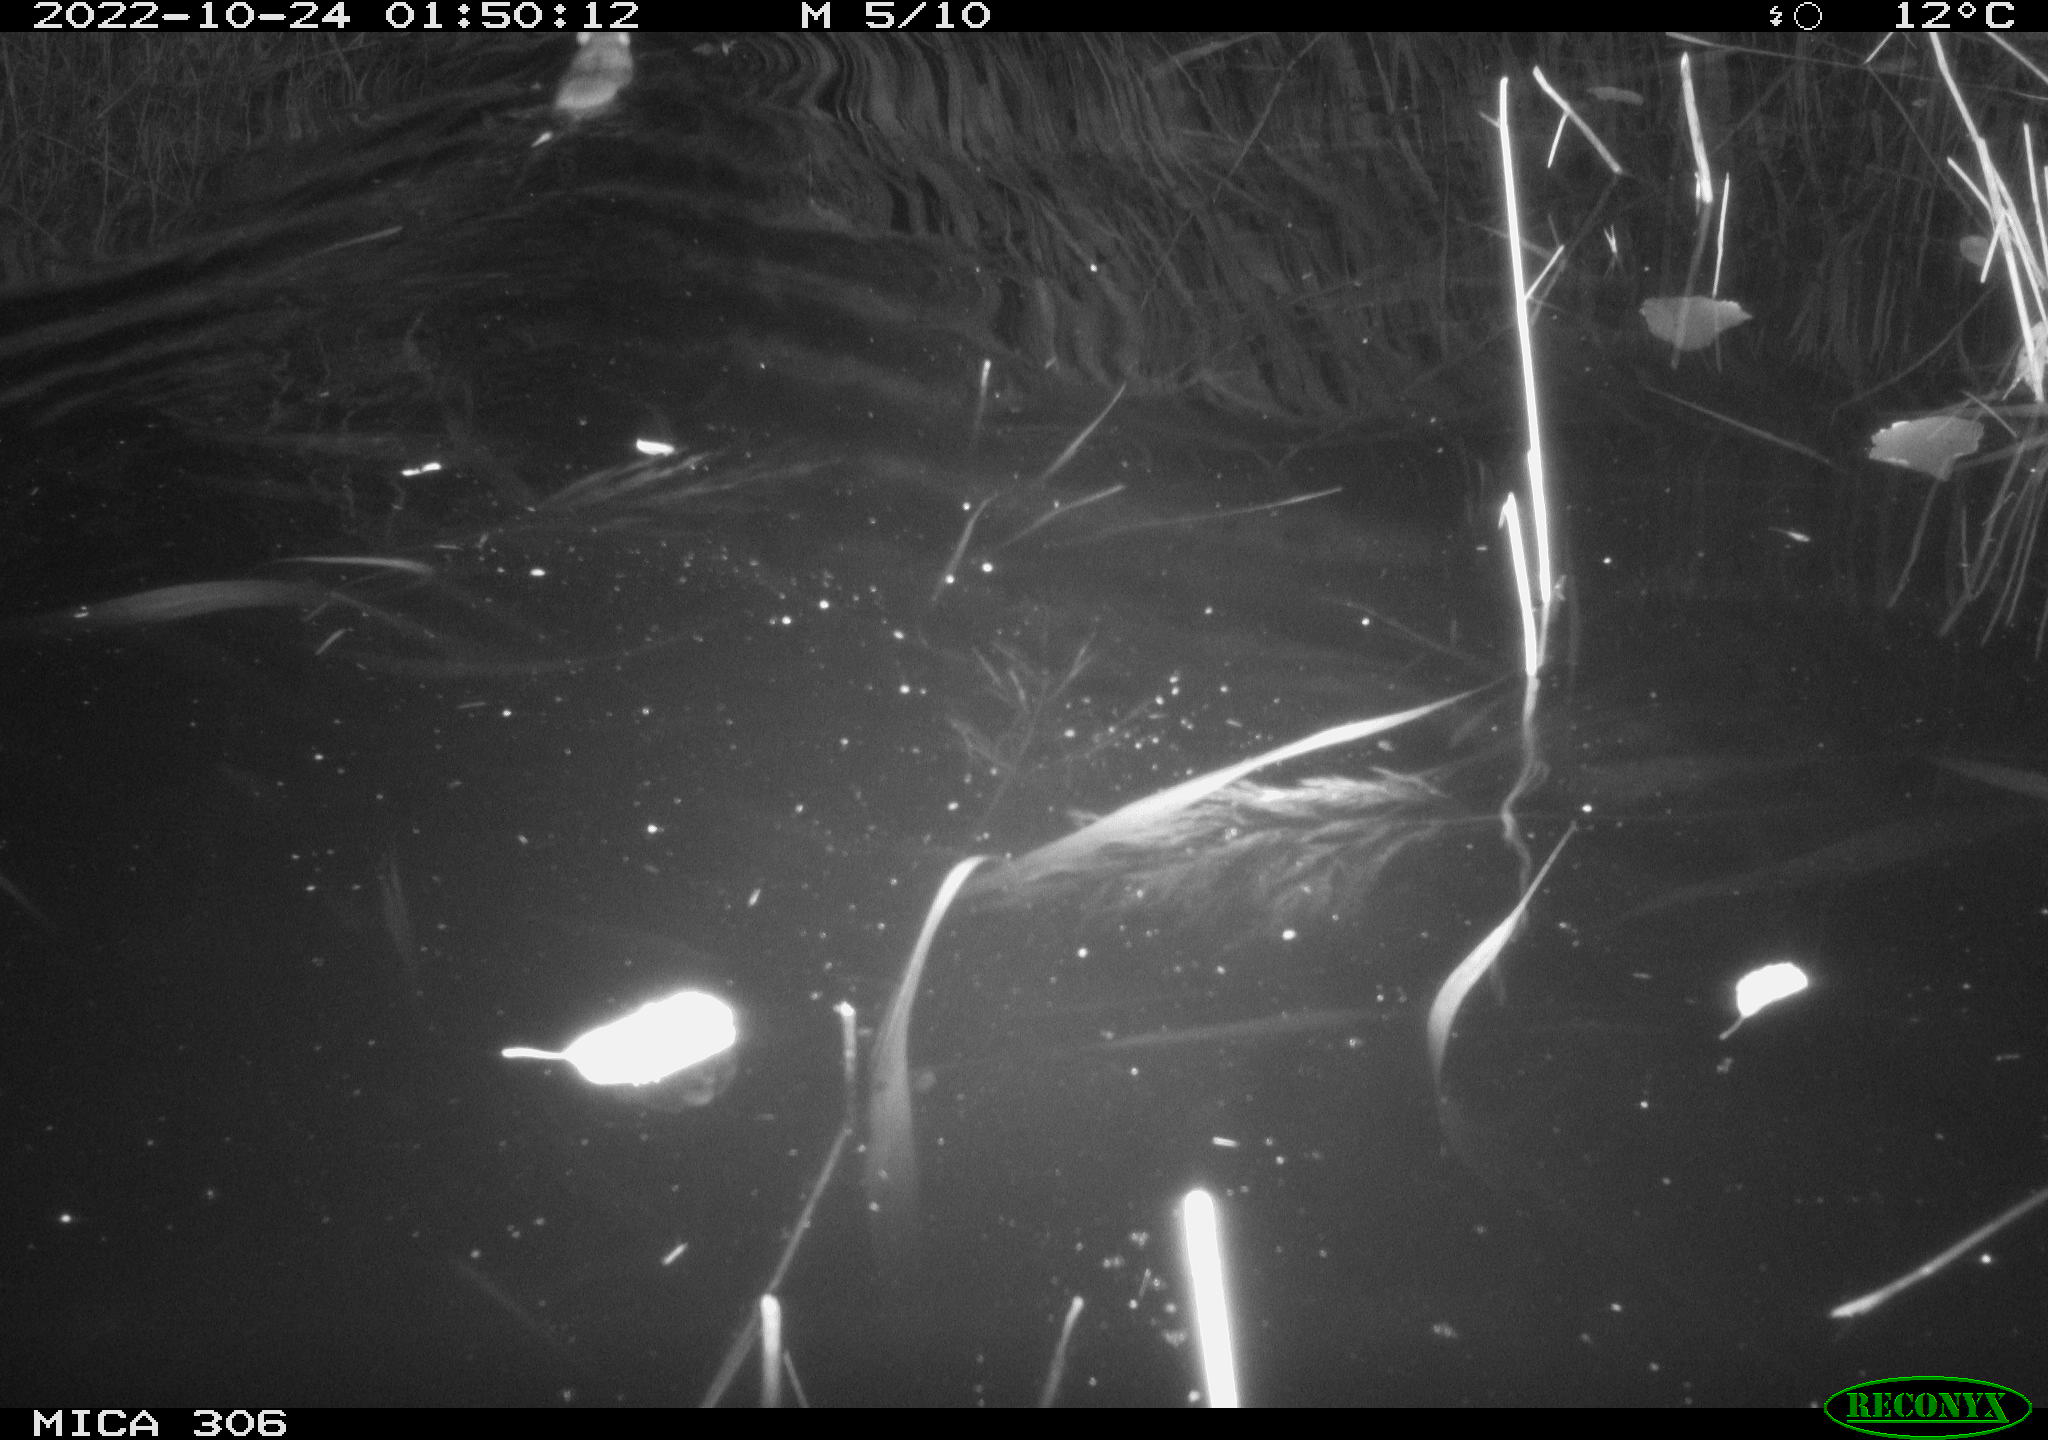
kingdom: Animalia
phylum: Chordata
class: Mammalia
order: Rodentia
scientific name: Rodentia
